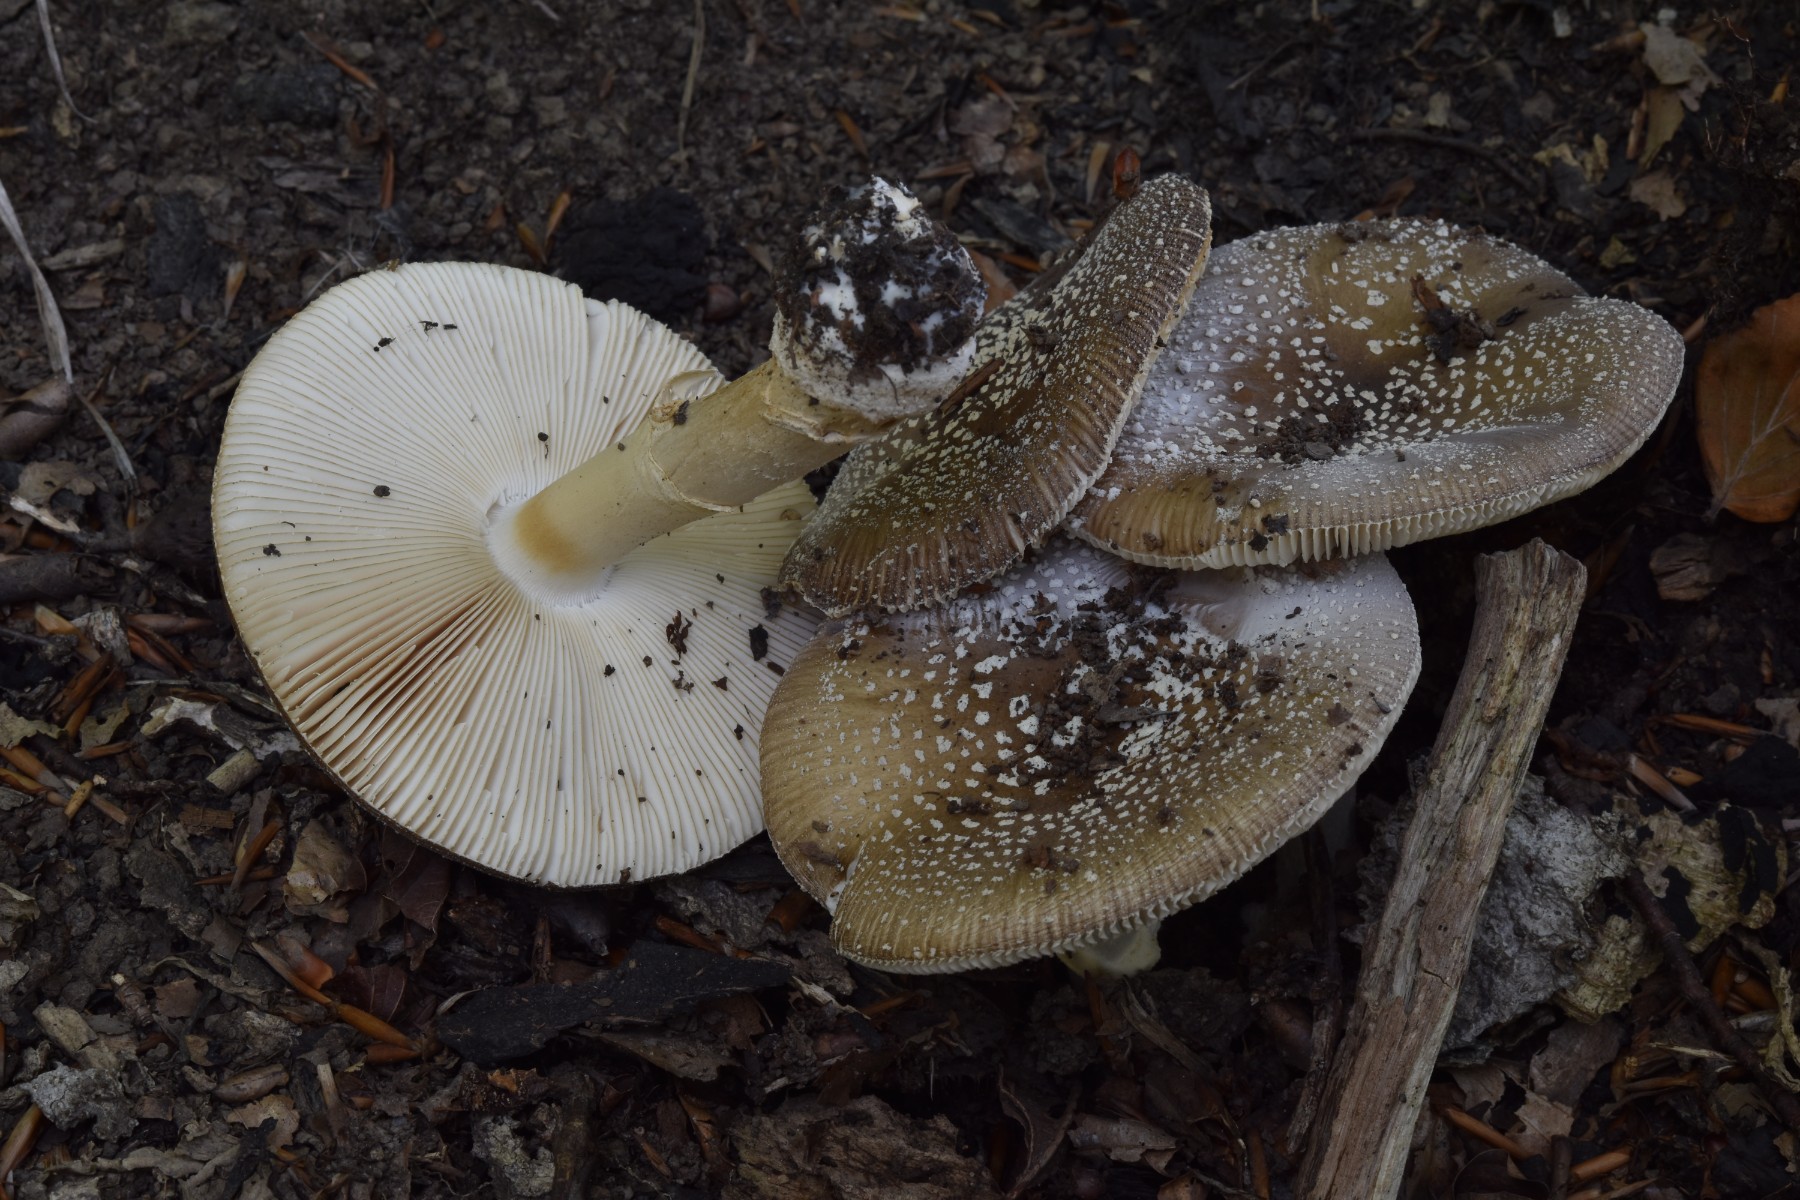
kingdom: Fungi
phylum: Basidiomycota
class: Agaricomycetes
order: Agaricales
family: Amanitaceae
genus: Amanita
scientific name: Amanita pantherina
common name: panter-fluesvamp
